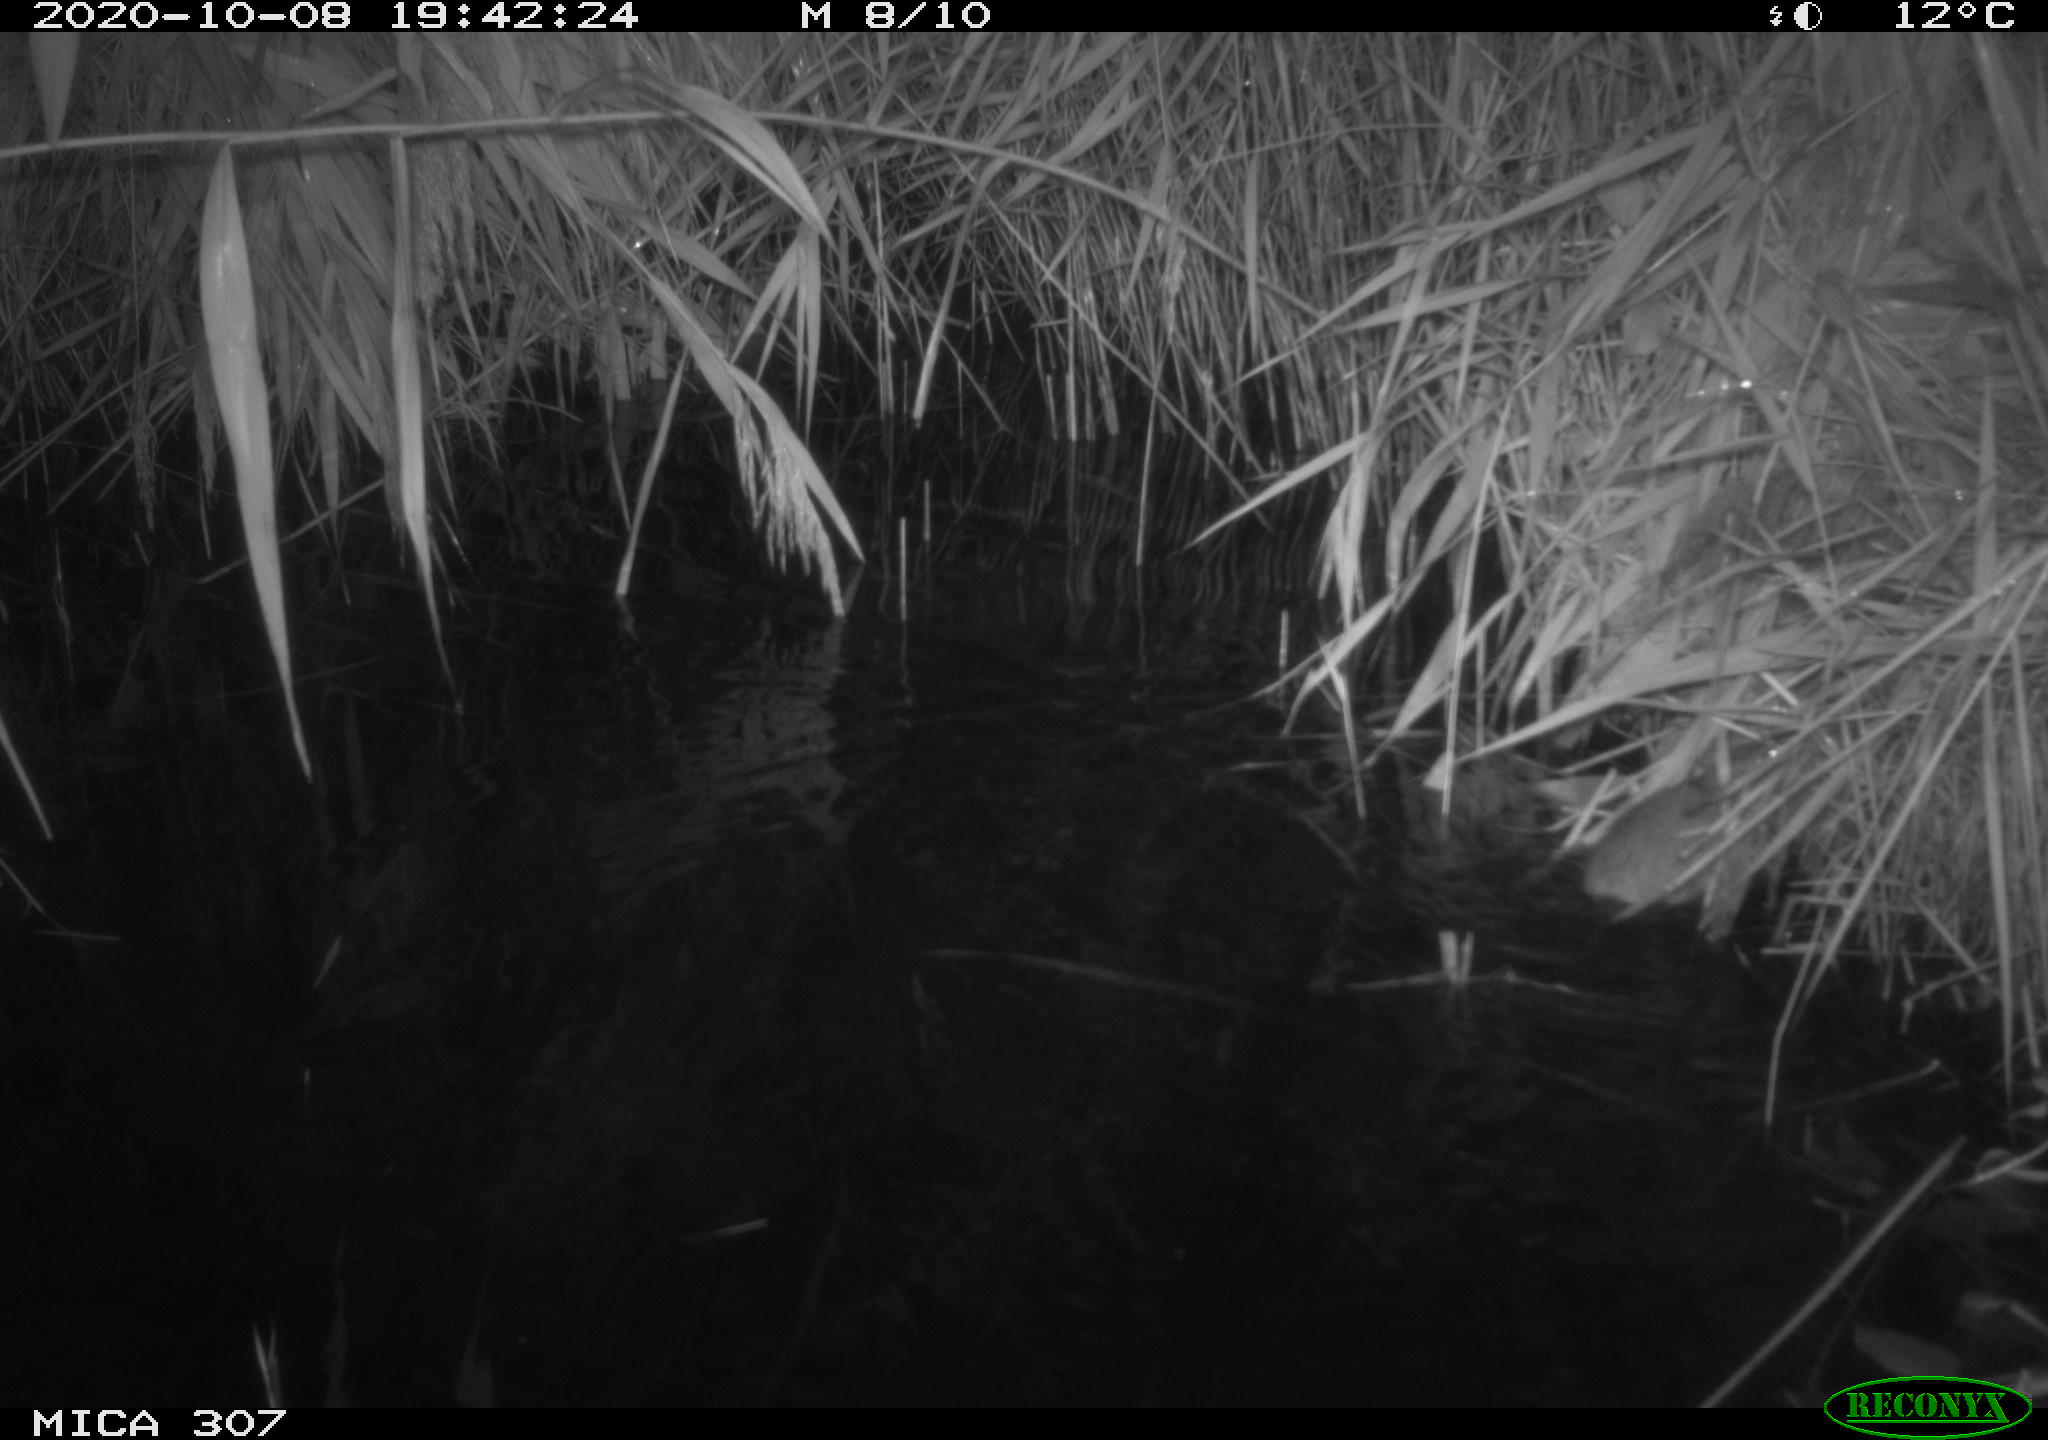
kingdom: Animalia
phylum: Chordata
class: Mammalia
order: Rodentia
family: Muridae
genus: Rattus
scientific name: Rattus norvegicus
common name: Brown rat
